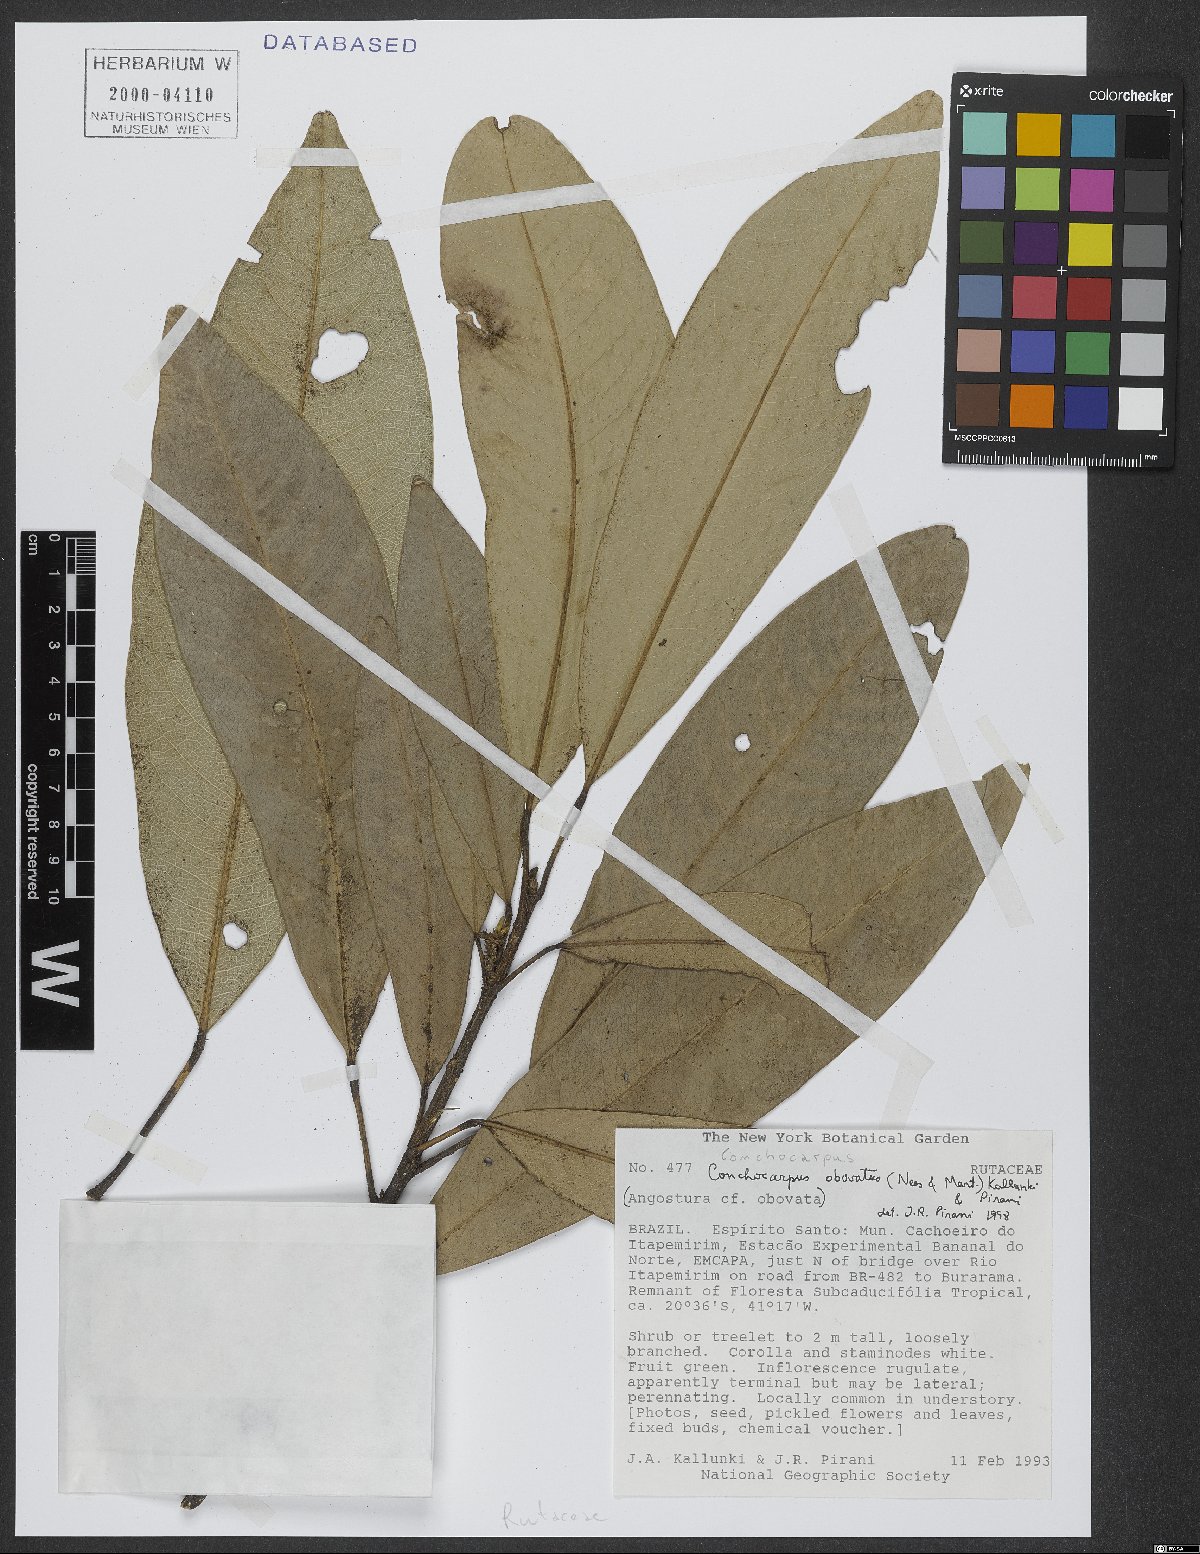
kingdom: Plantae
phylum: Tracheophyta
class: Magnoliopsida
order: Sapindales
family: Rutaceae
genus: Conchocarpus
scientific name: Conchocarpus obovatus
